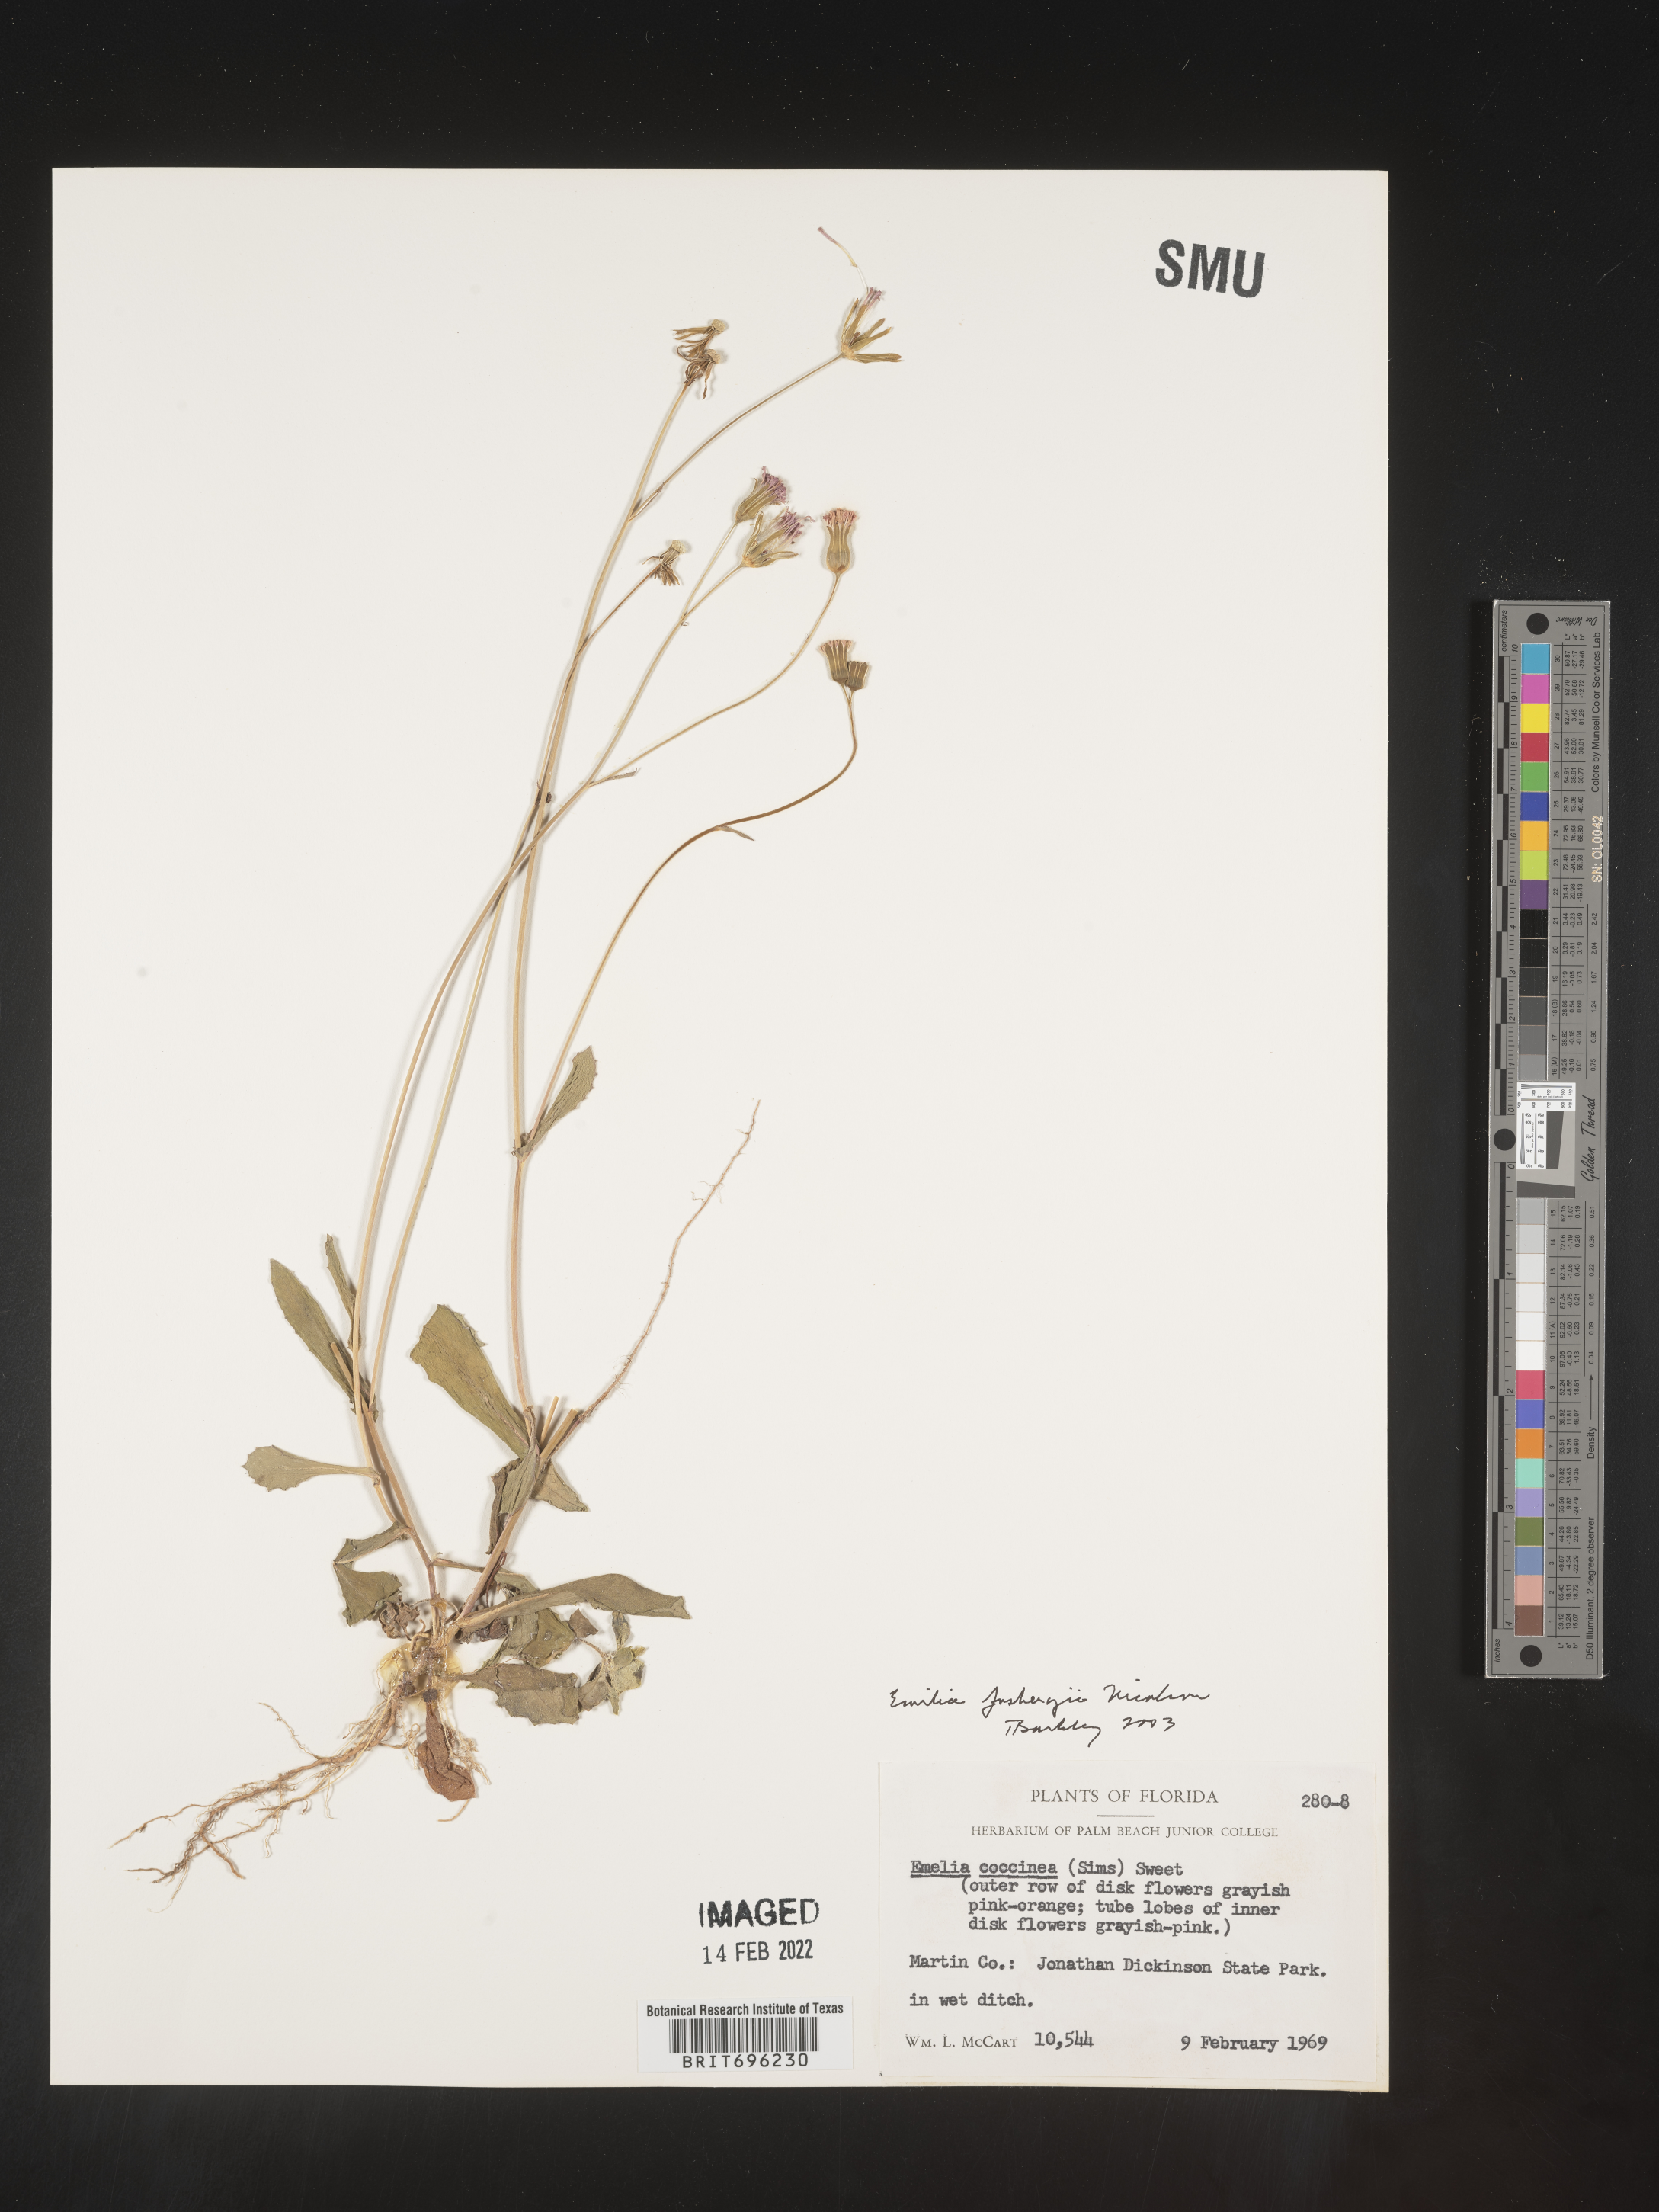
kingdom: Plantae
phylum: Tracheophyta
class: Magnoliopsida
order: Asterales
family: Asteraceae
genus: Emilia
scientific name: Emilia fosbergii
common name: Florida tasselflower
